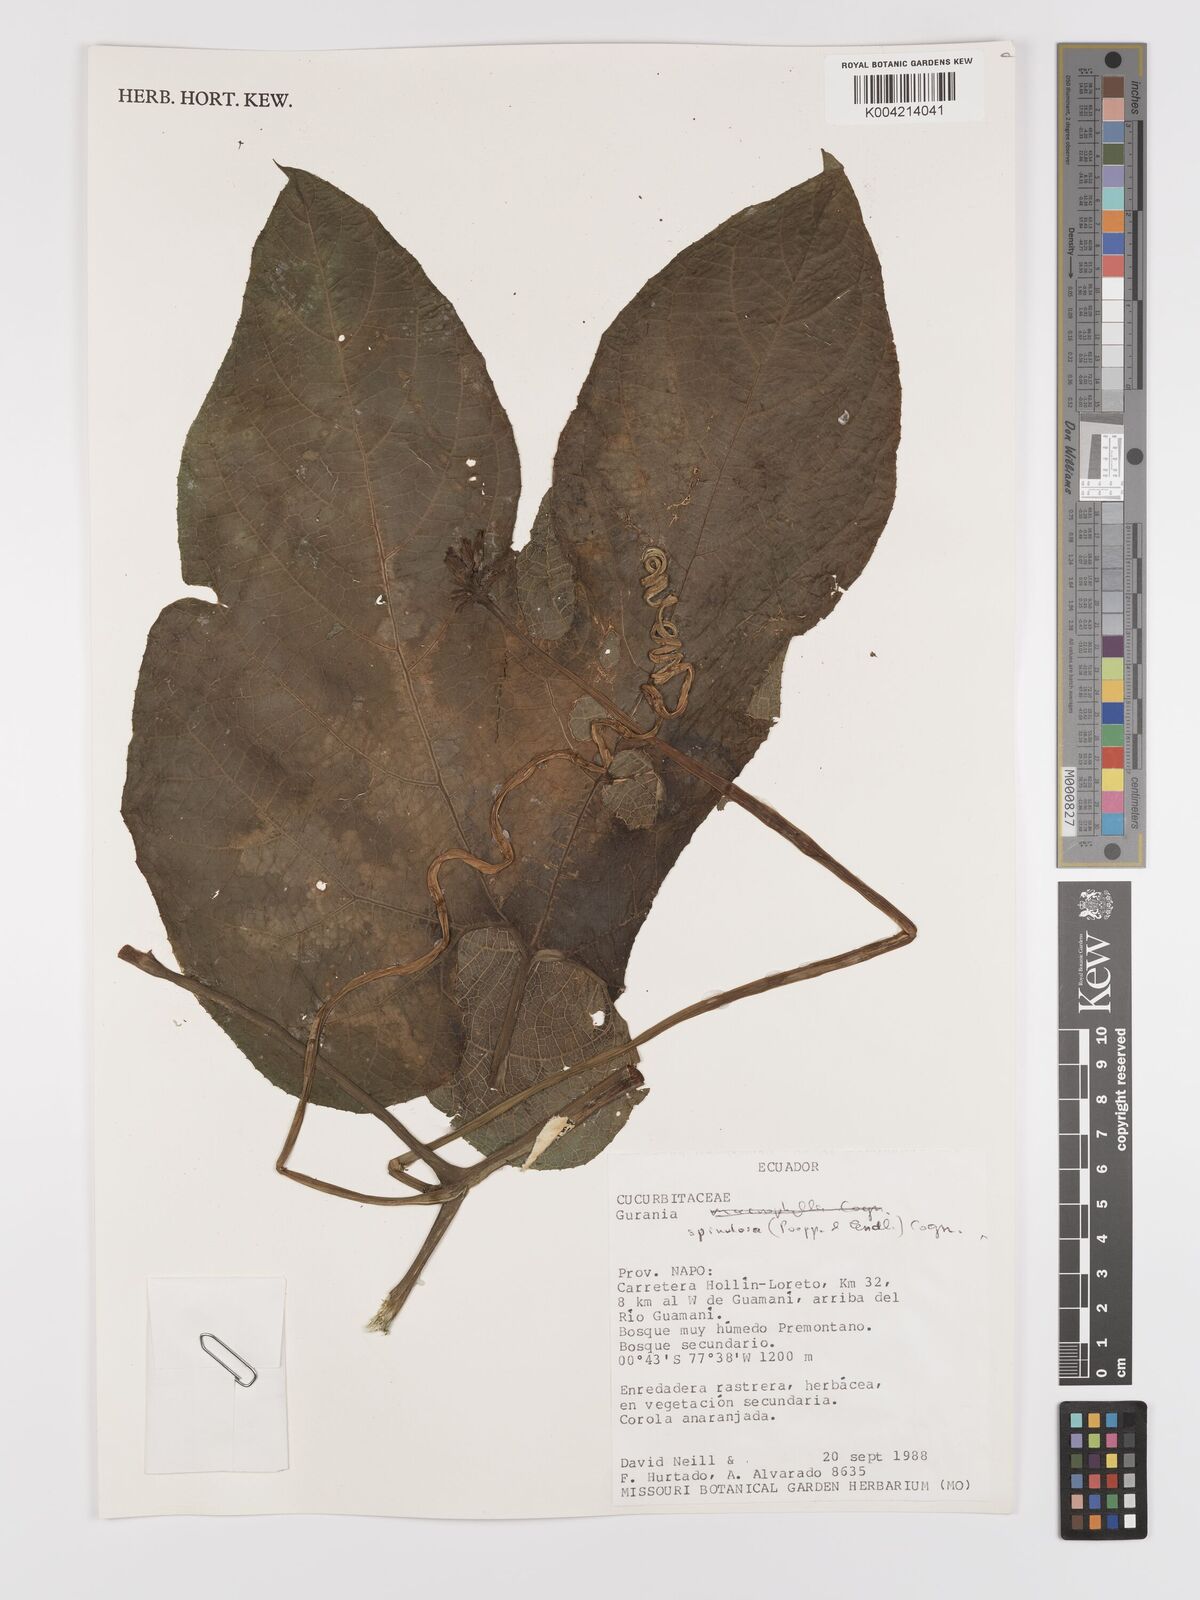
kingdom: Plantae
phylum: Tracheophyta
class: Magnoliopsida
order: Cucurbitales
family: Cucurbitaceae
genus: Gurania
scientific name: Gurania lobata
